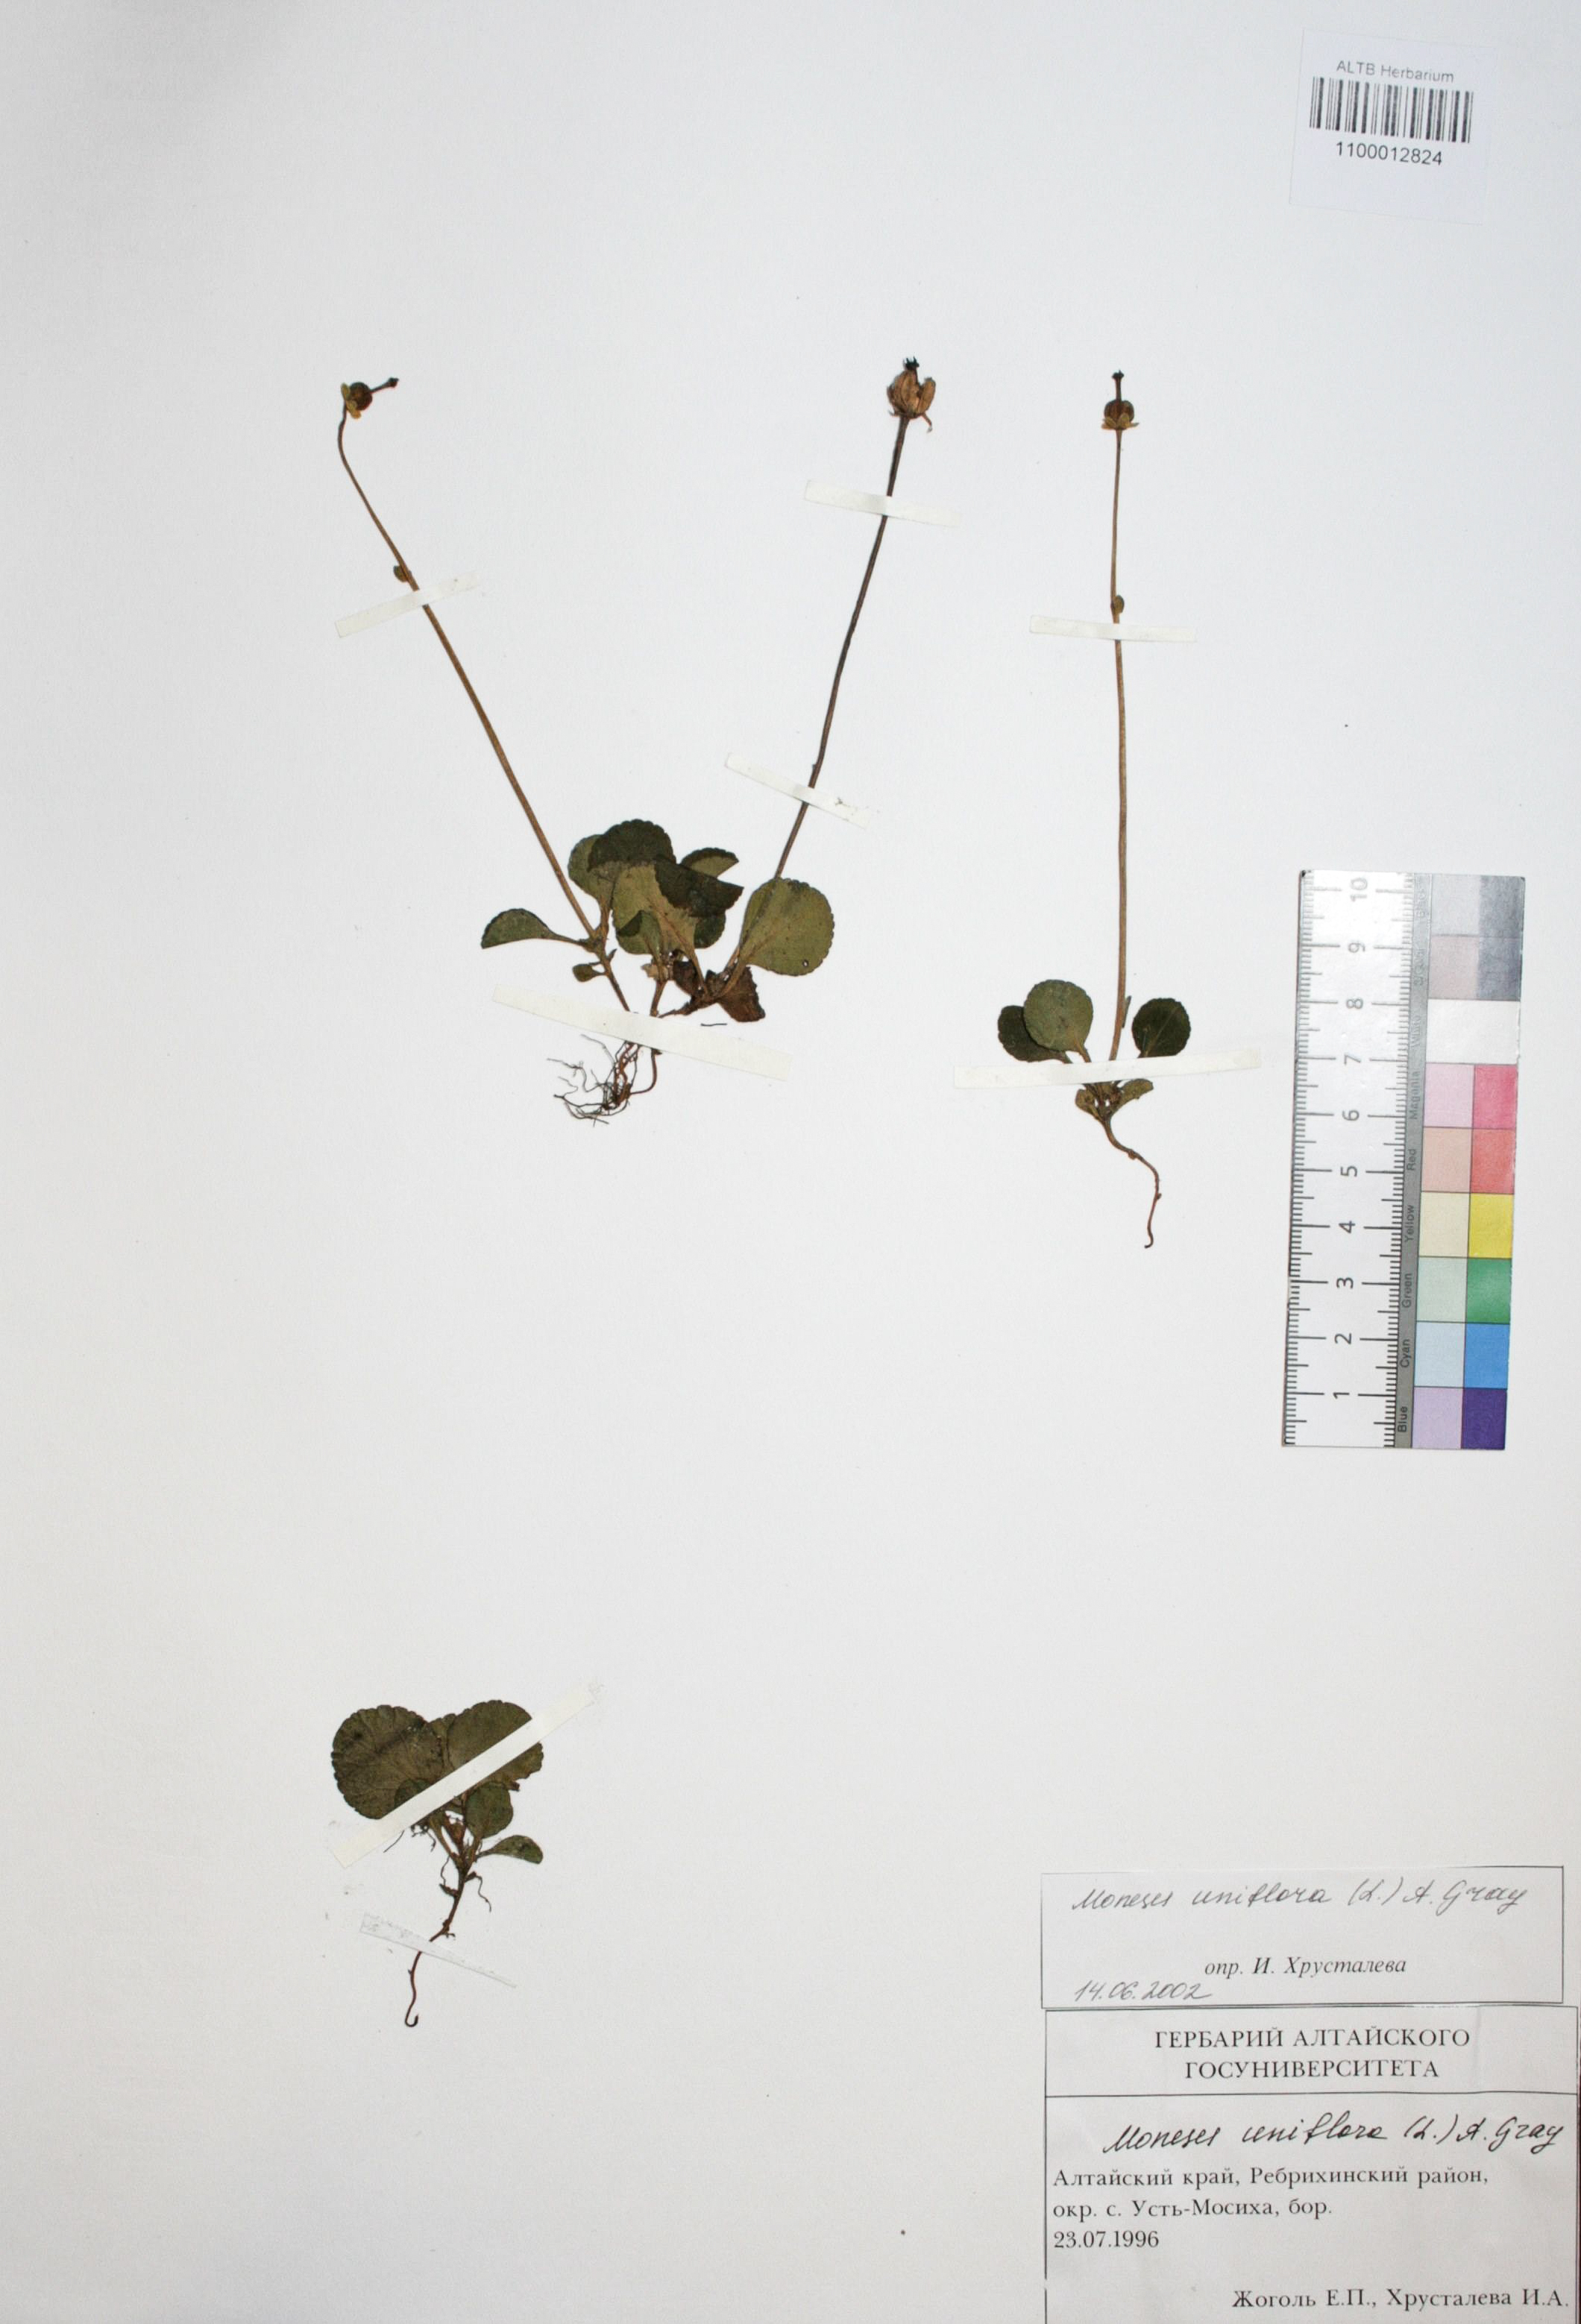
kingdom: Plantae
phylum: Tracheophyta
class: Magnoliopsida
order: Ericales
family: Ericaceae
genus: Moneses
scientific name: Moneses uniflora
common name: One-flowered wintergreen
